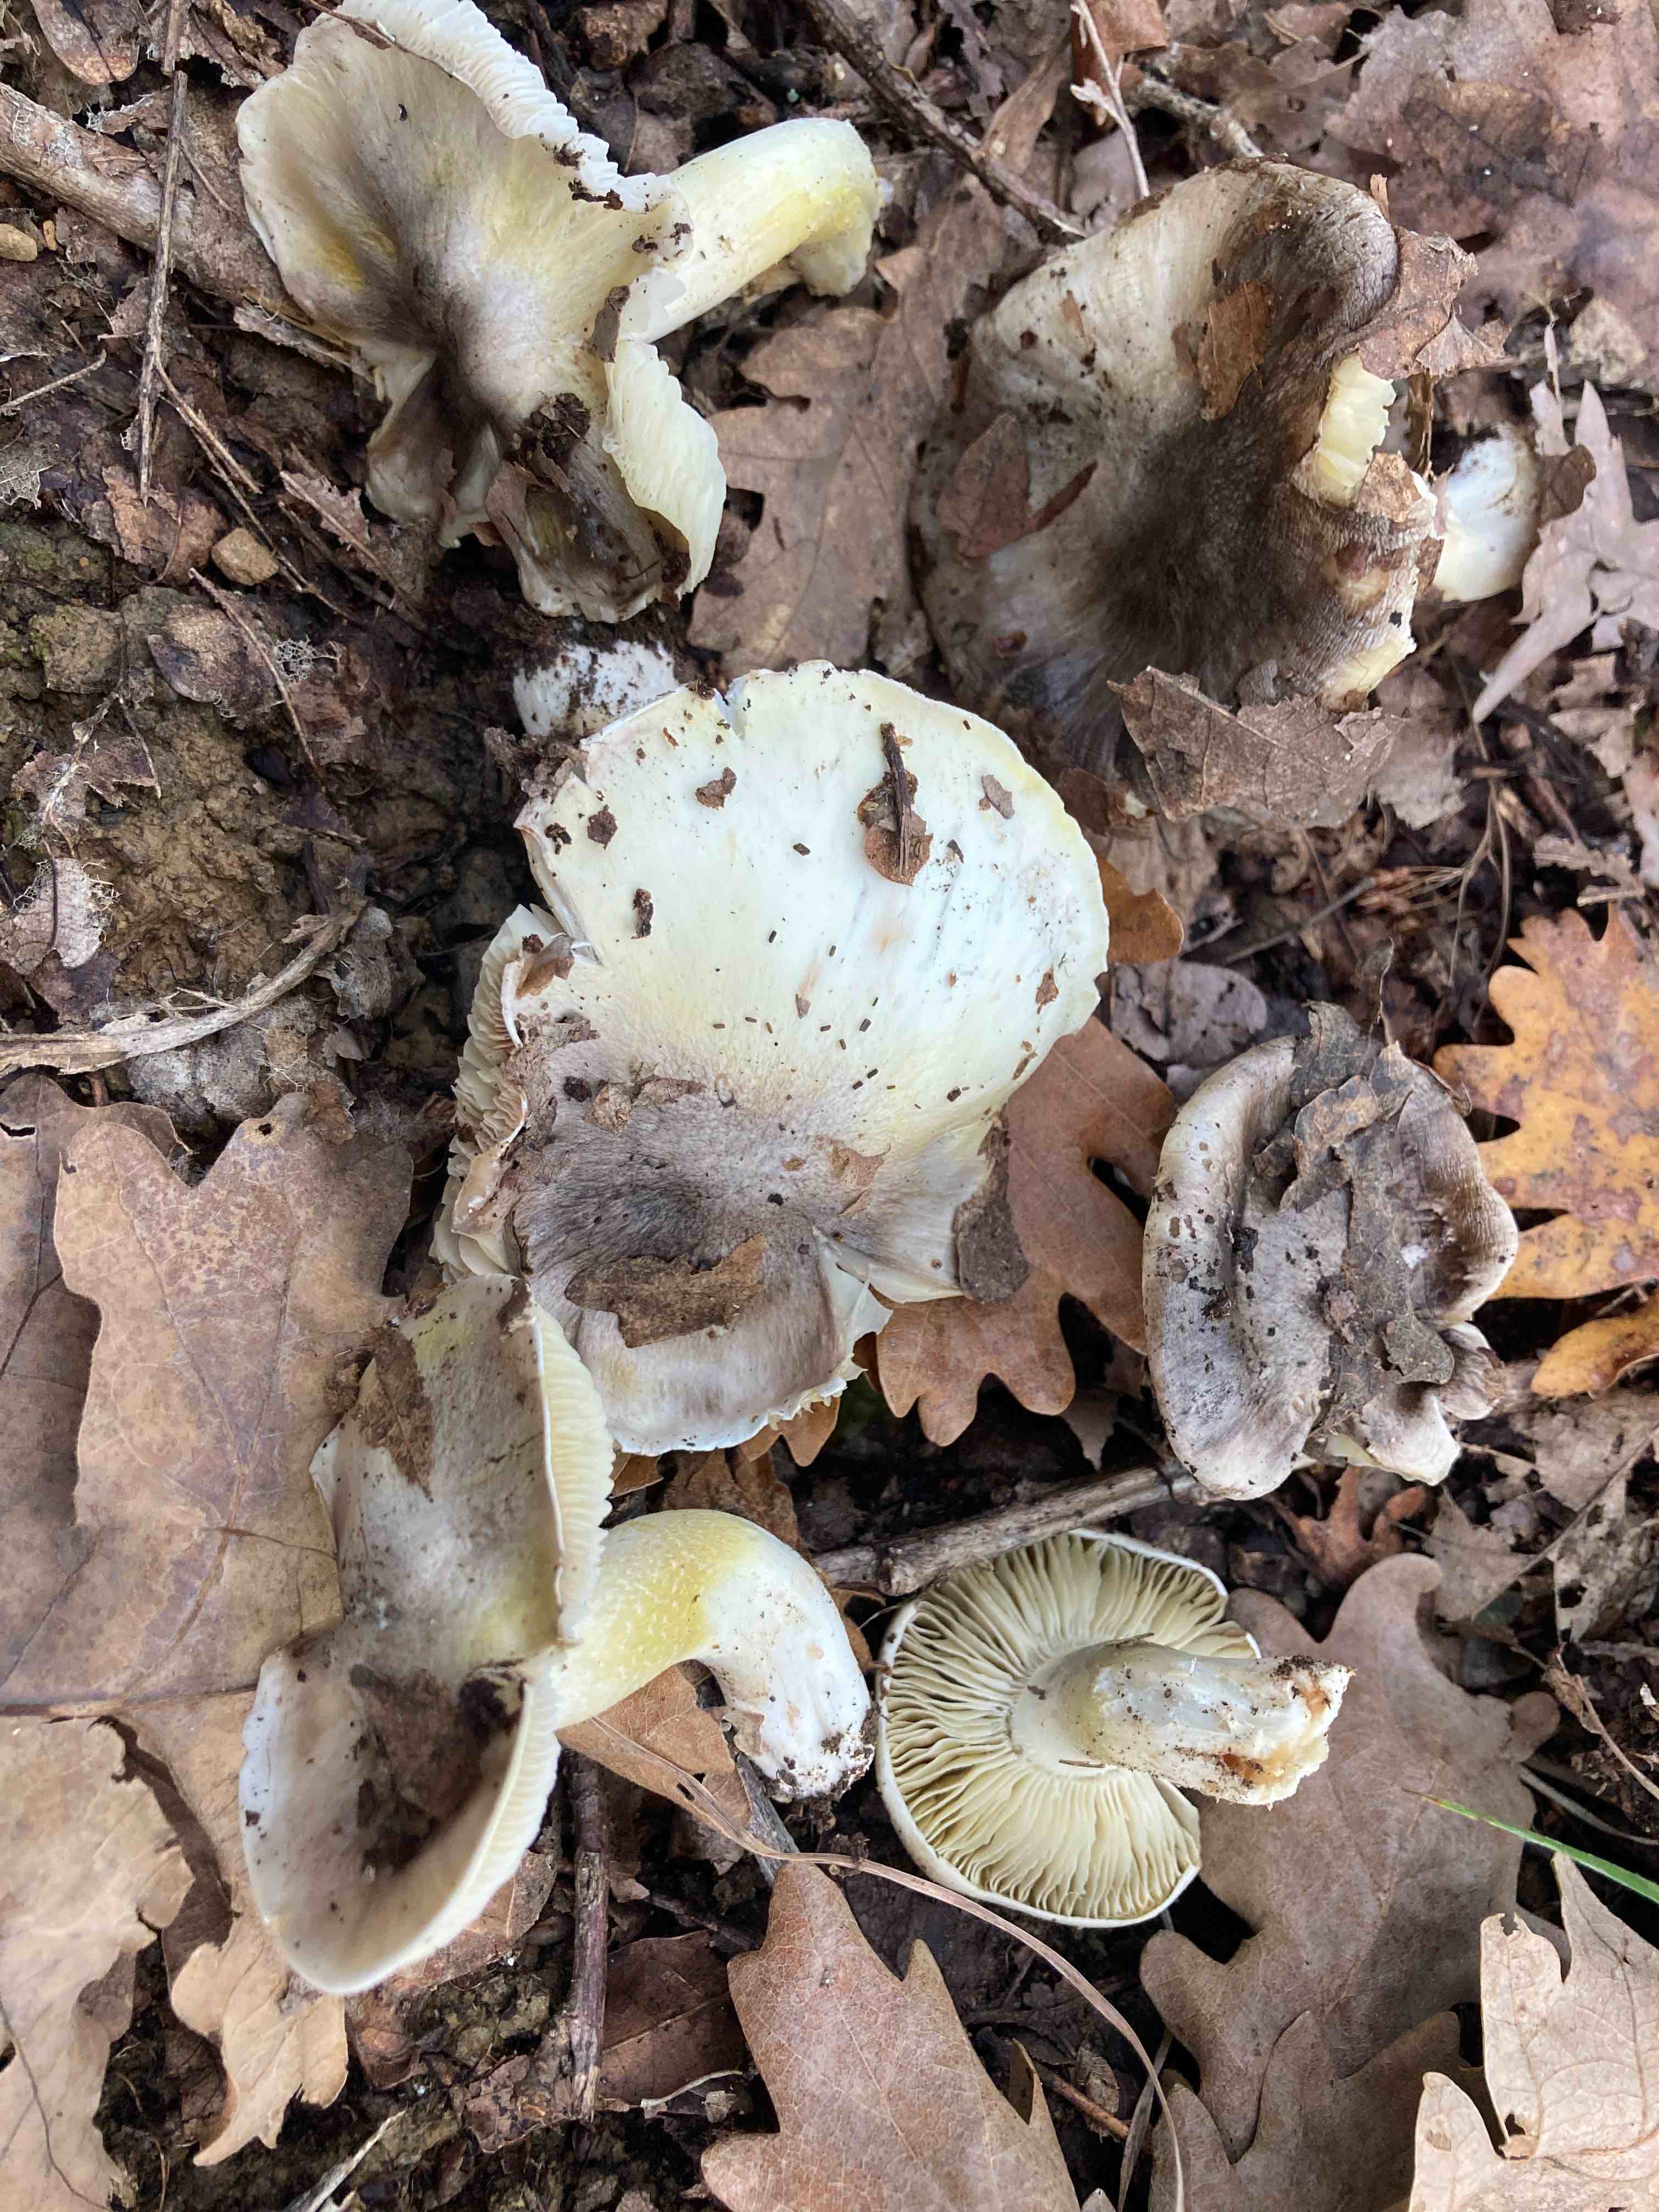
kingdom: Fungi
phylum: Basidiomycota
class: Agaricomycetes
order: Agaricales
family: Tricholomataceae
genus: Tricholoma
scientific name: Tricholoma
